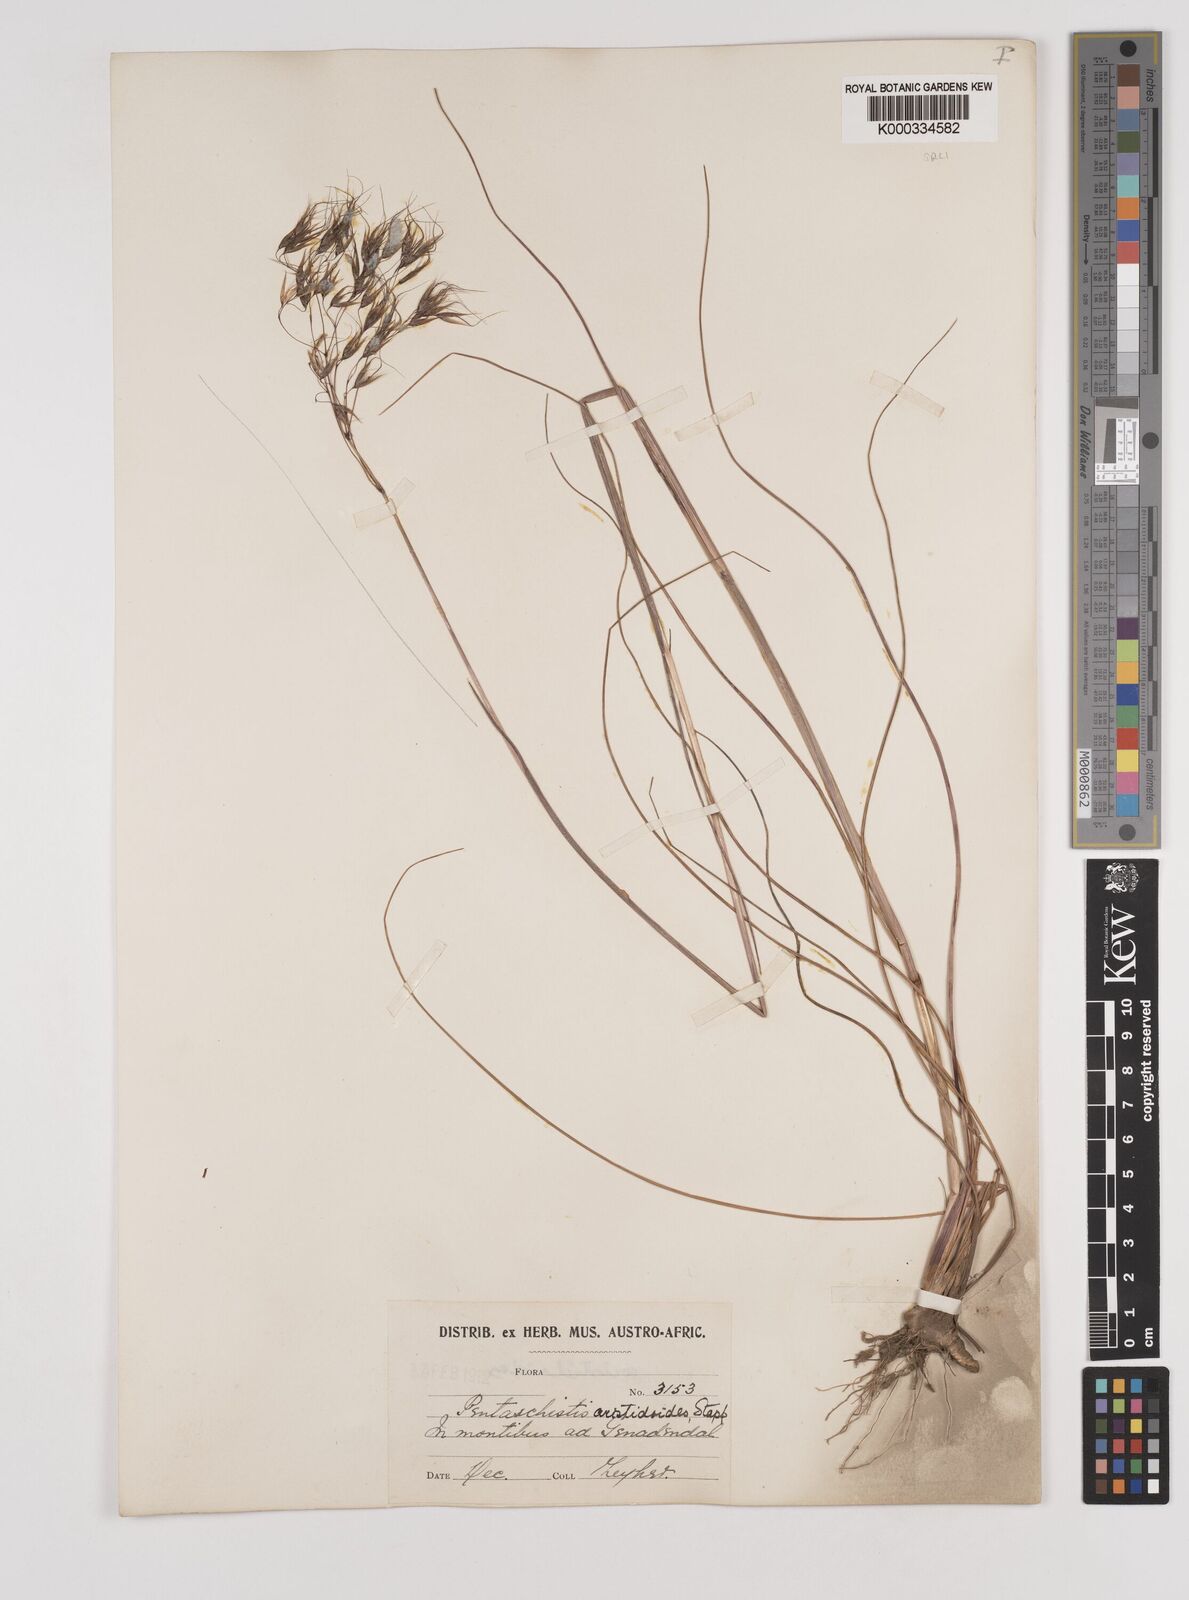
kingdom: Plantae
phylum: Tracheophyta
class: Liliopsida
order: Poales
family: Poaceae
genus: Pentameris
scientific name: Pentameris aristidoides
